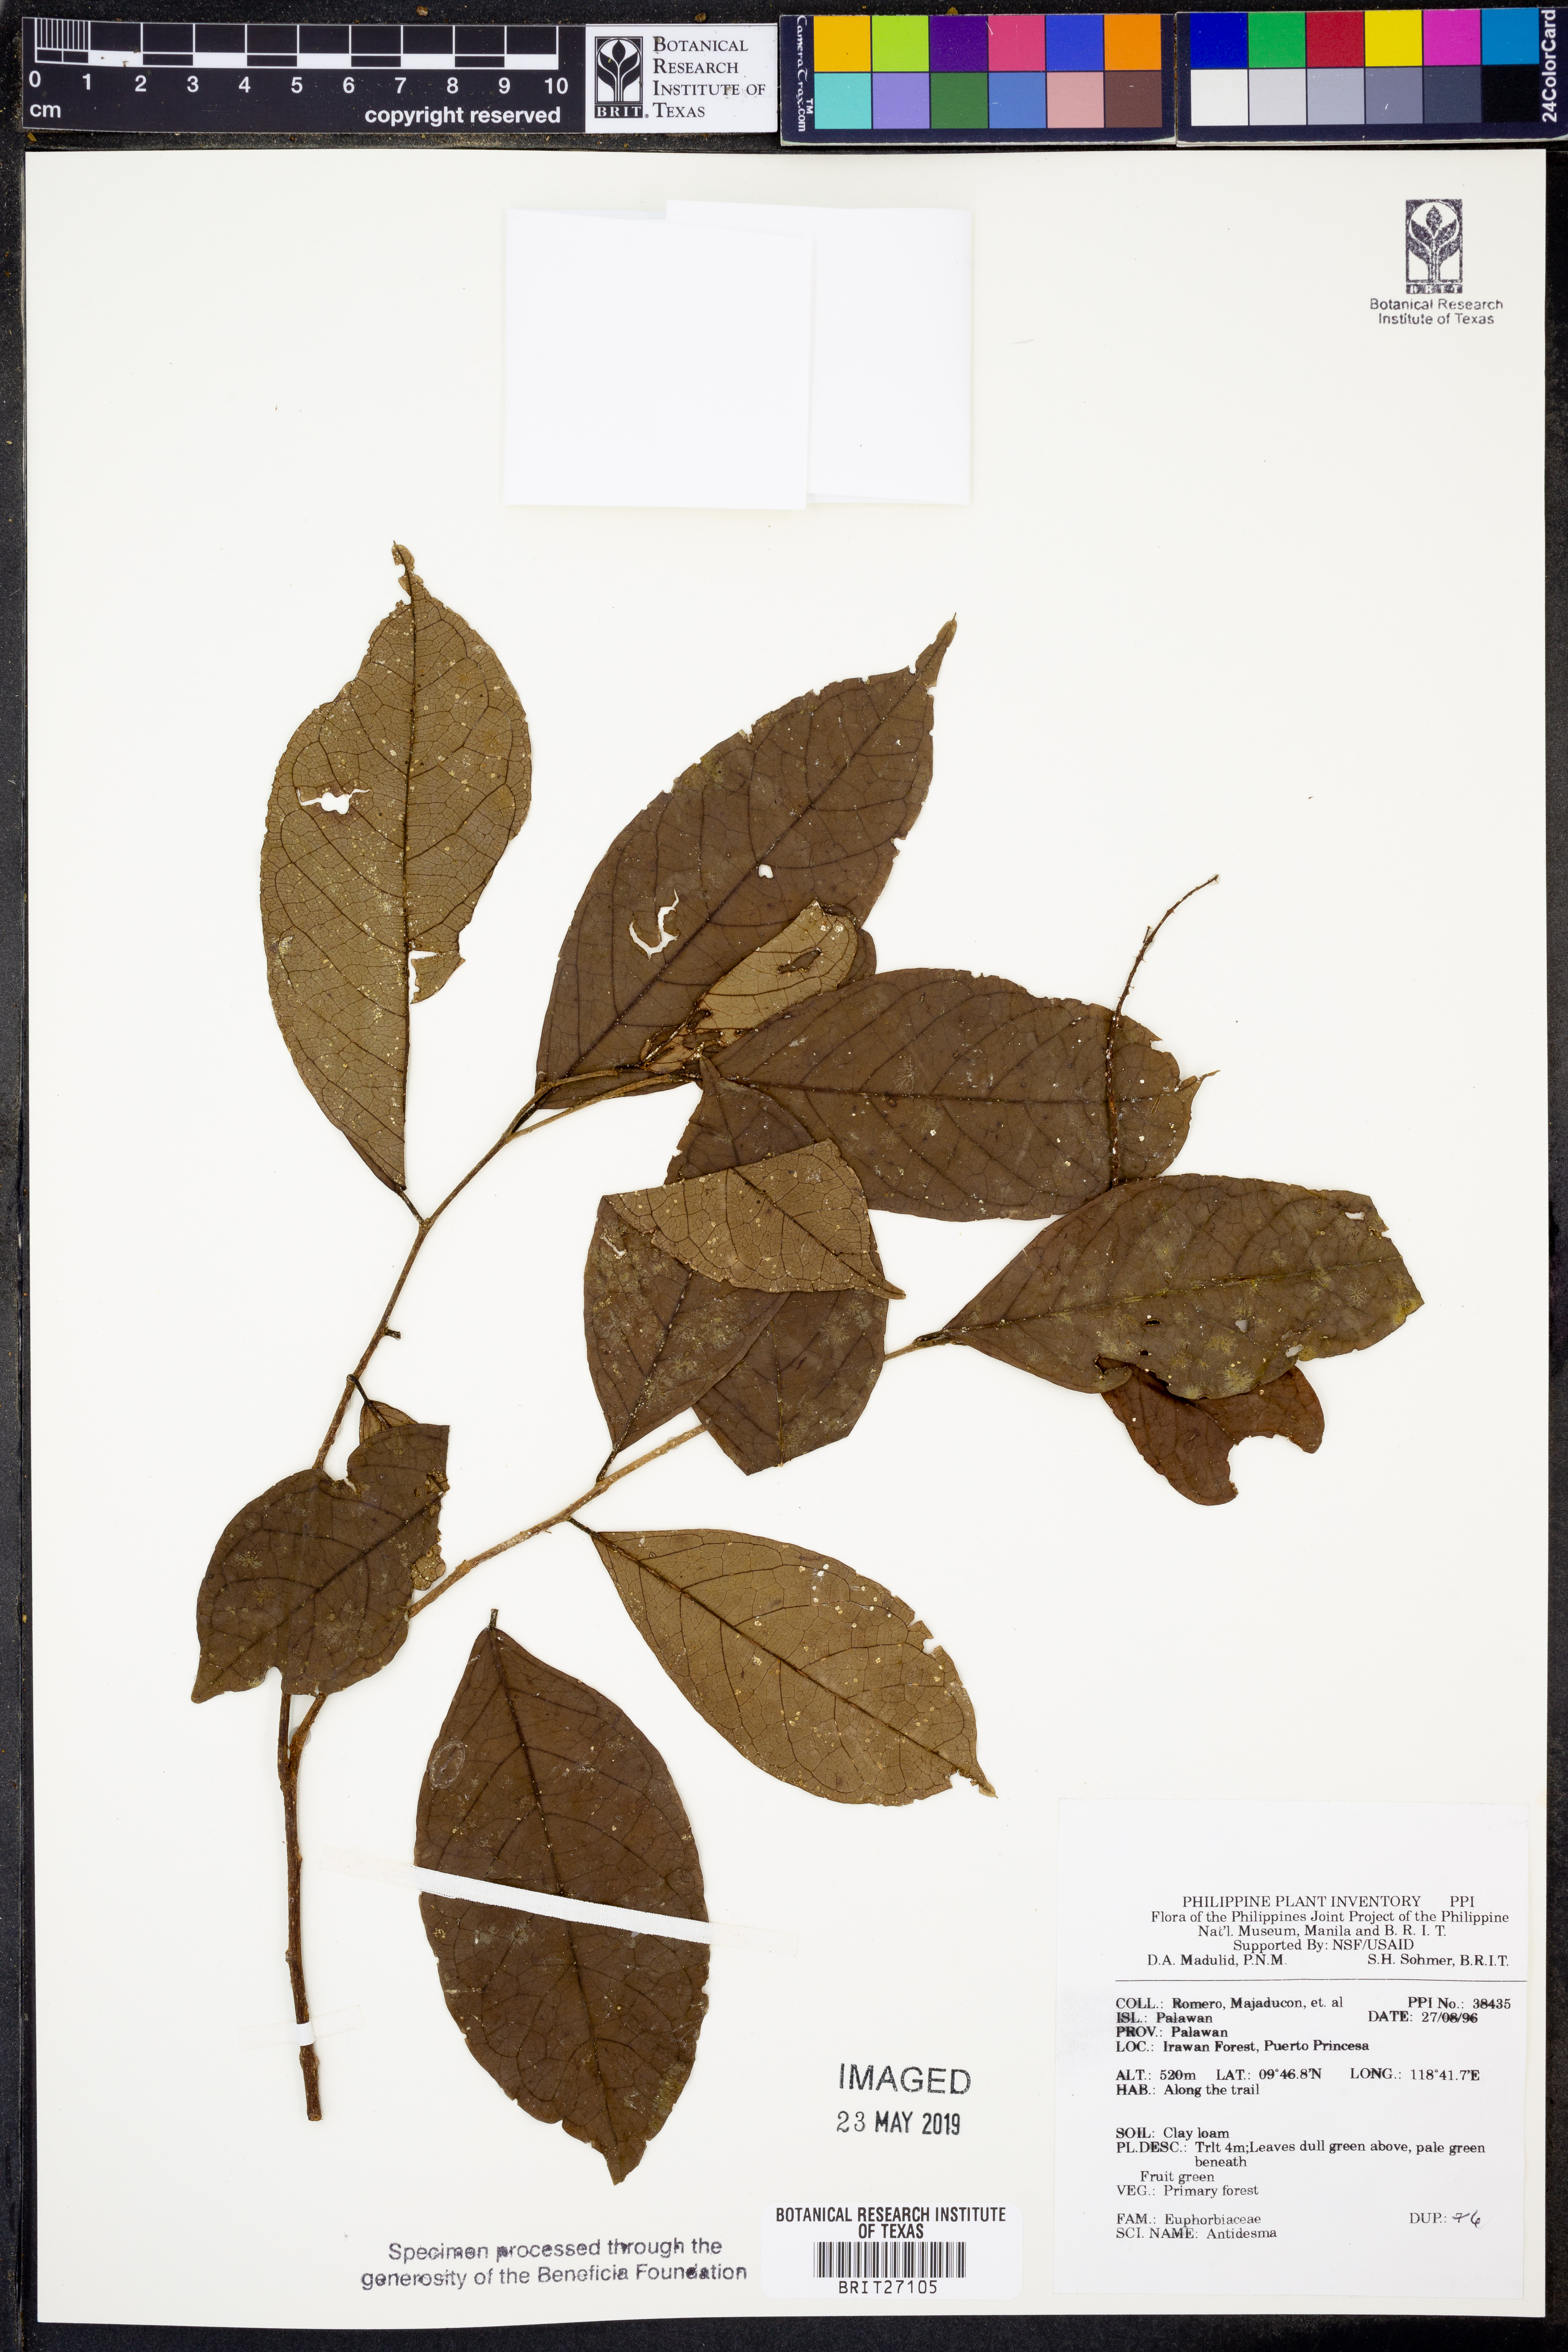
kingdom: Plantae
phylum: Tracheophyta
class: Magnoliopsida
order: Malpighiales
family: Phyllanthaceae
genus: Antidesma
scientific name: Antidesma
